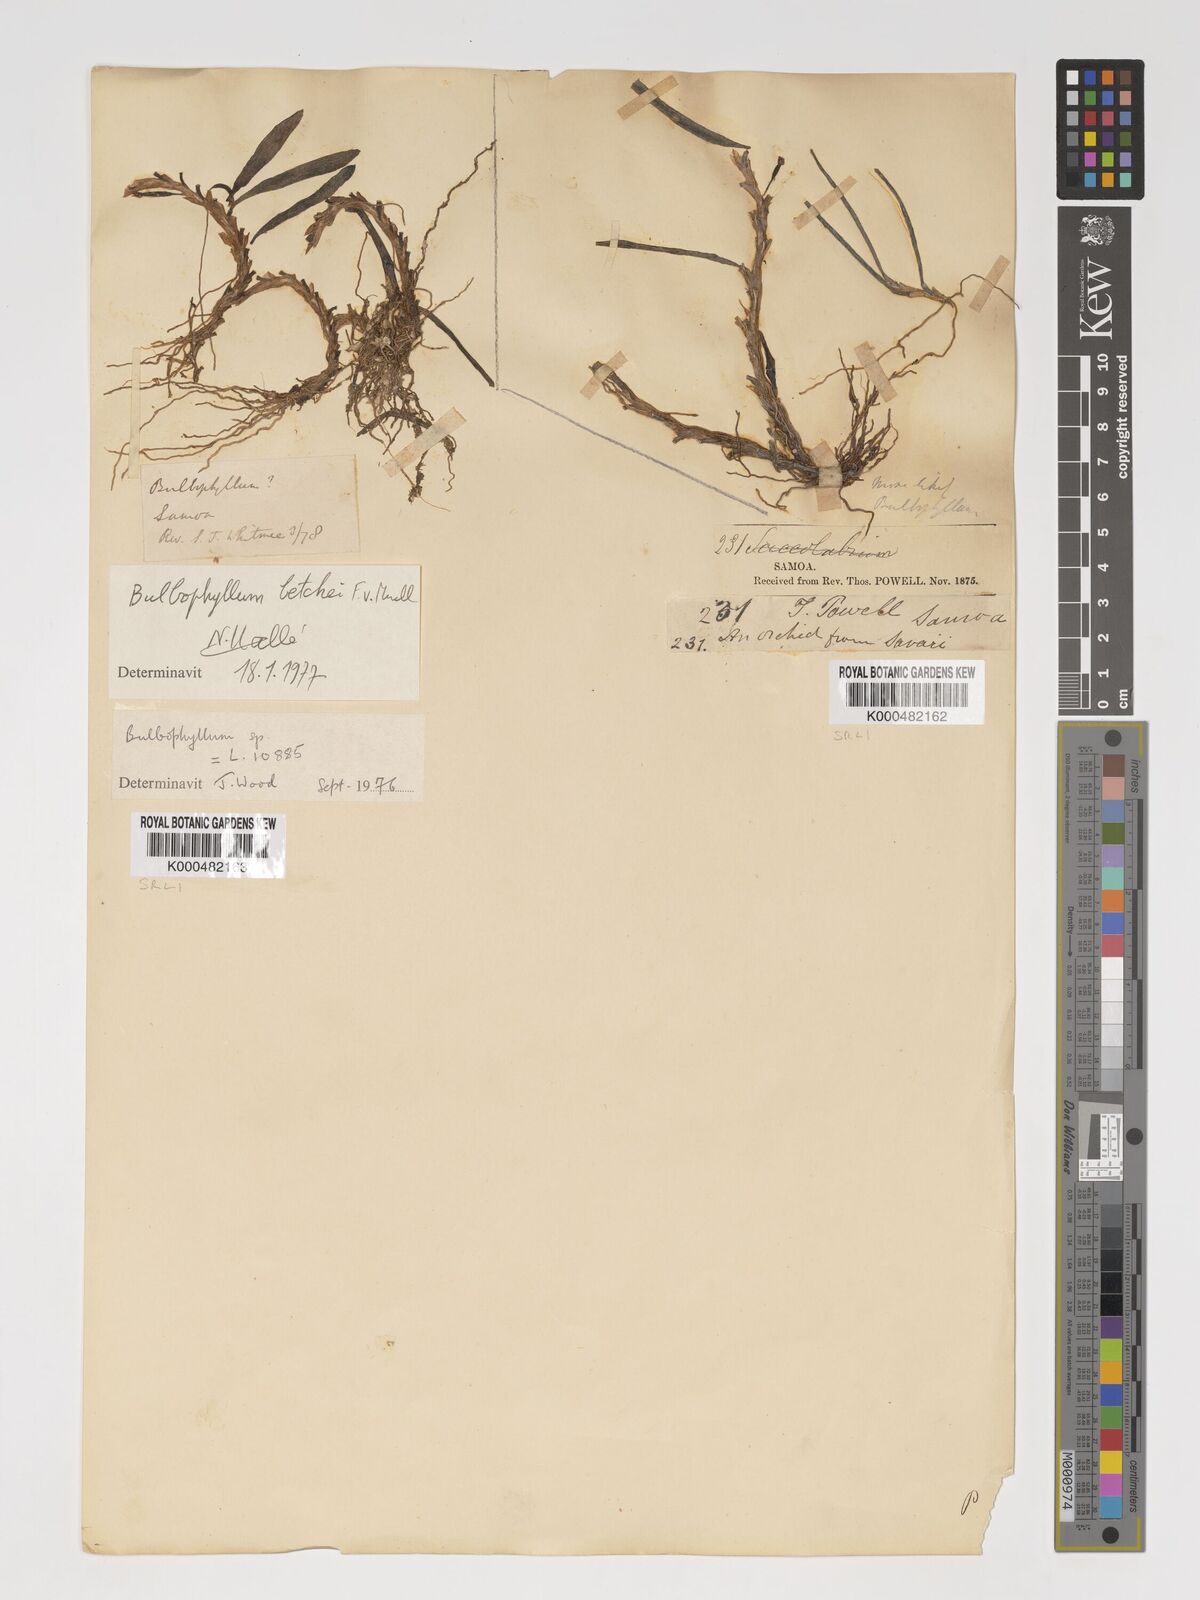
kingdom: Plantae
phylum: Tracheophyta
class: Liliopsida
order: Asparagales
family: Orchidaceae
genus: Bulbophyllum
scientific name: Bulbophyllum betchei
